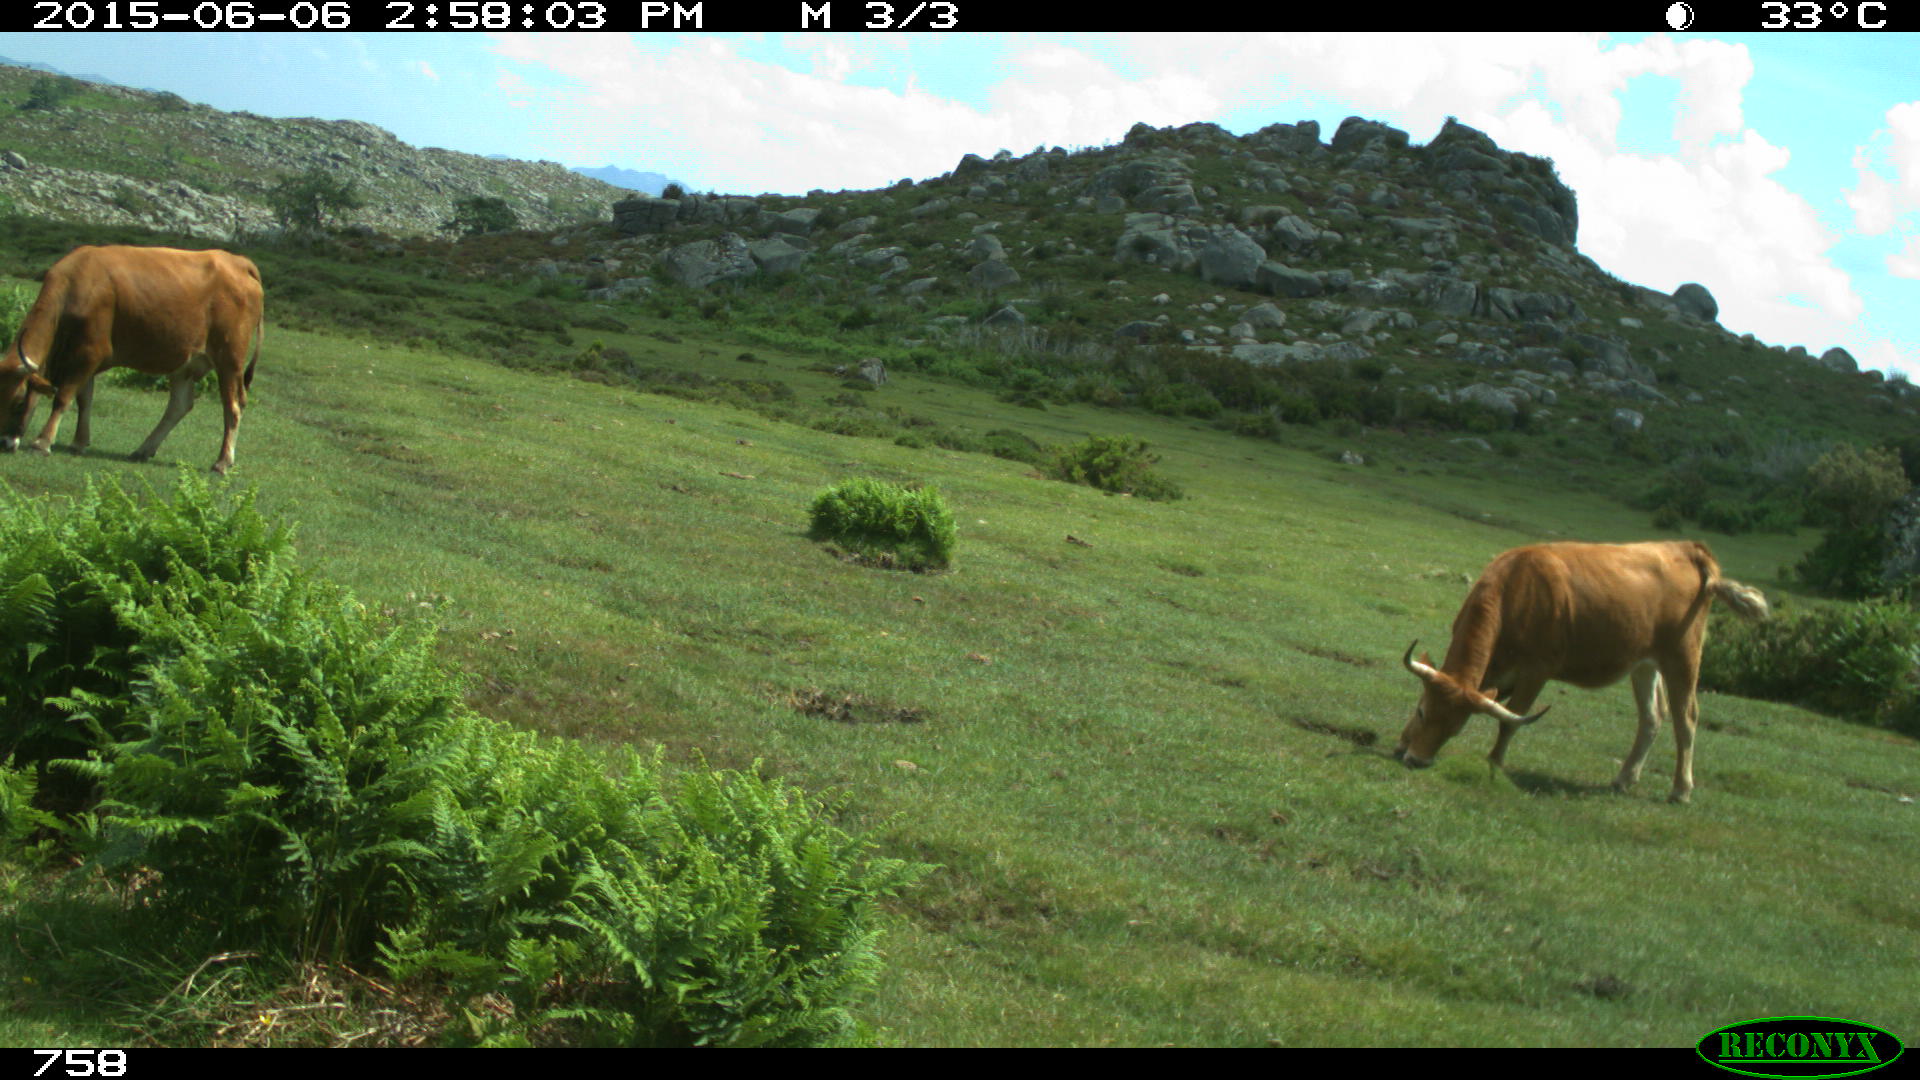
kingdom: Animalia
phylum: Chordata
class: Mammalia
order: Artiodactyla
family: Bovidae
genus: Bos
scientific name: Bos taurus
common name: Domesticated cattle
